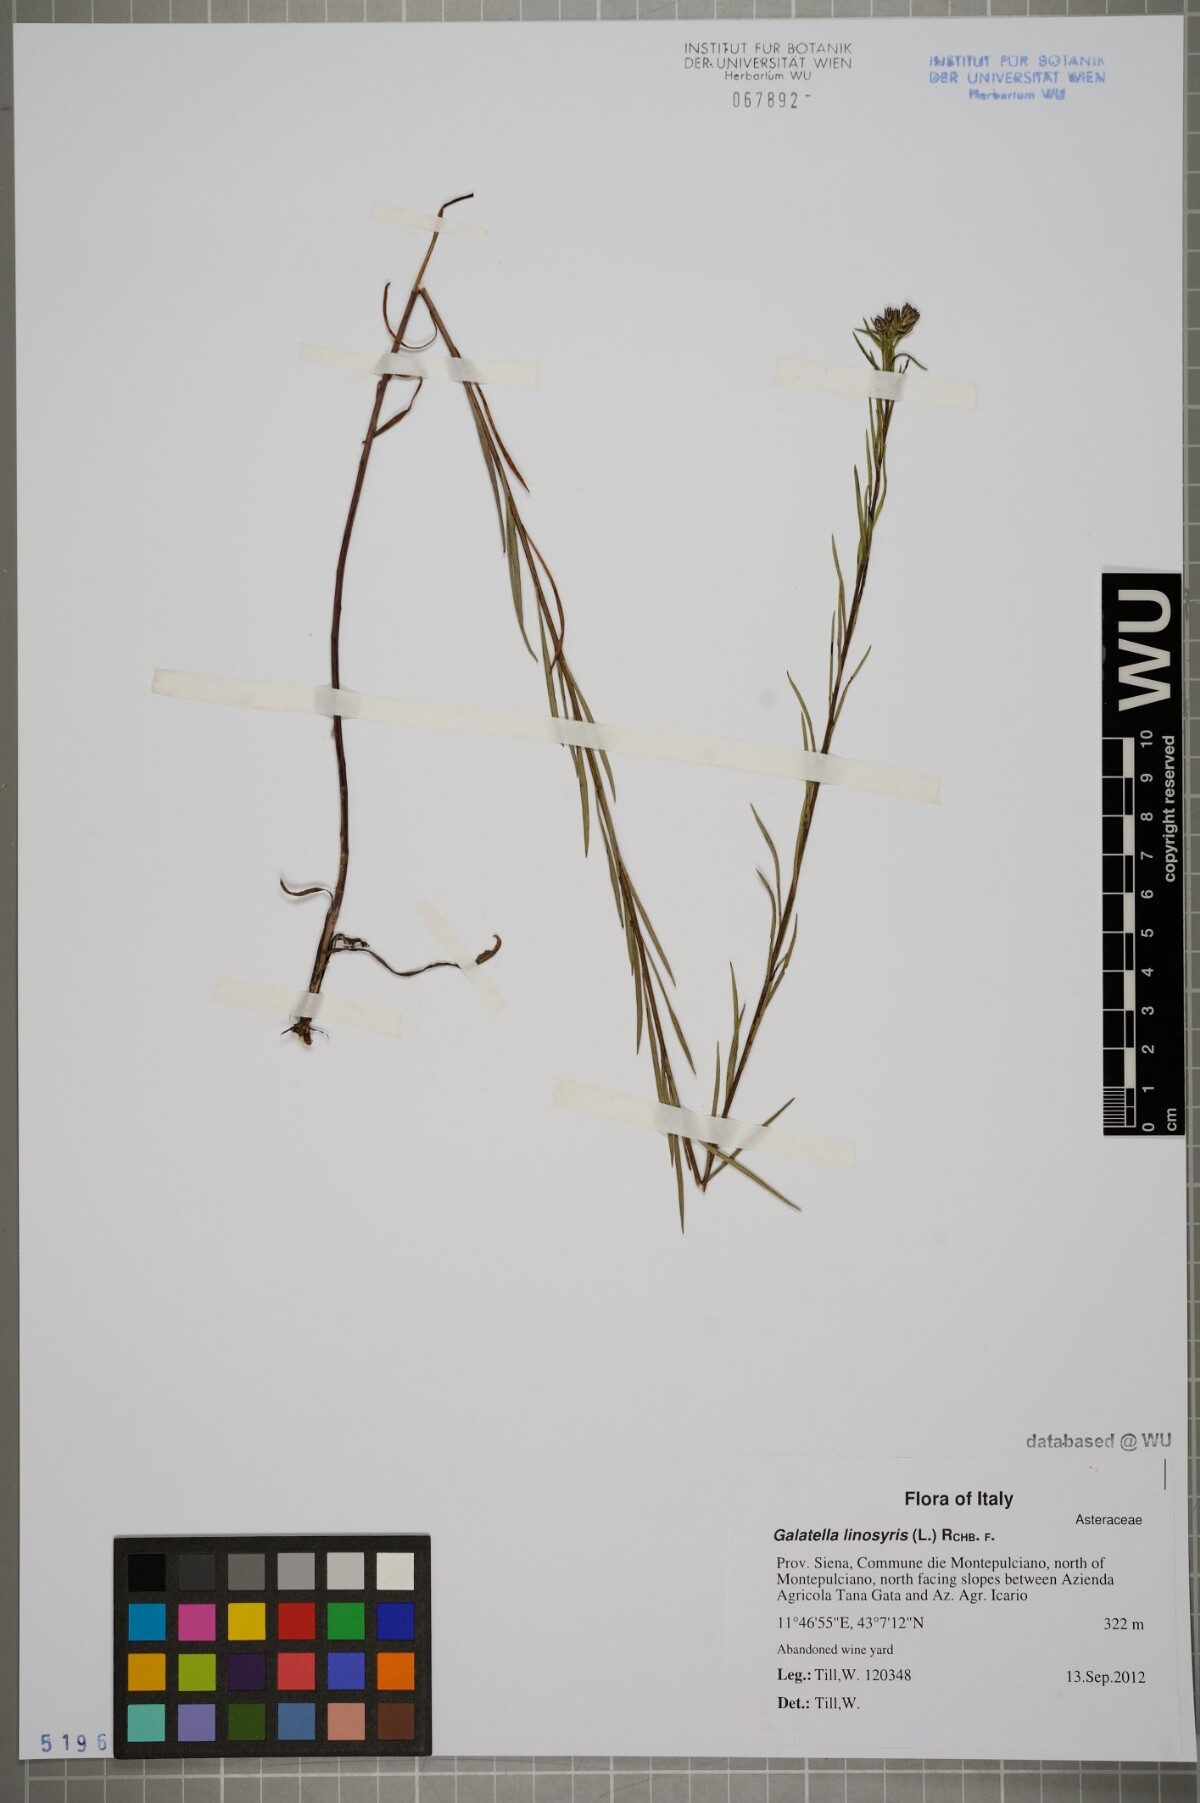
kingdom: Plantae
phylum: Tracheophyta
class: Magnoliopsida
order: Asterales
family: Asteraceae
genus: Galatella
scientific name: Galatella linosyris
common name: Goldilocks aster
